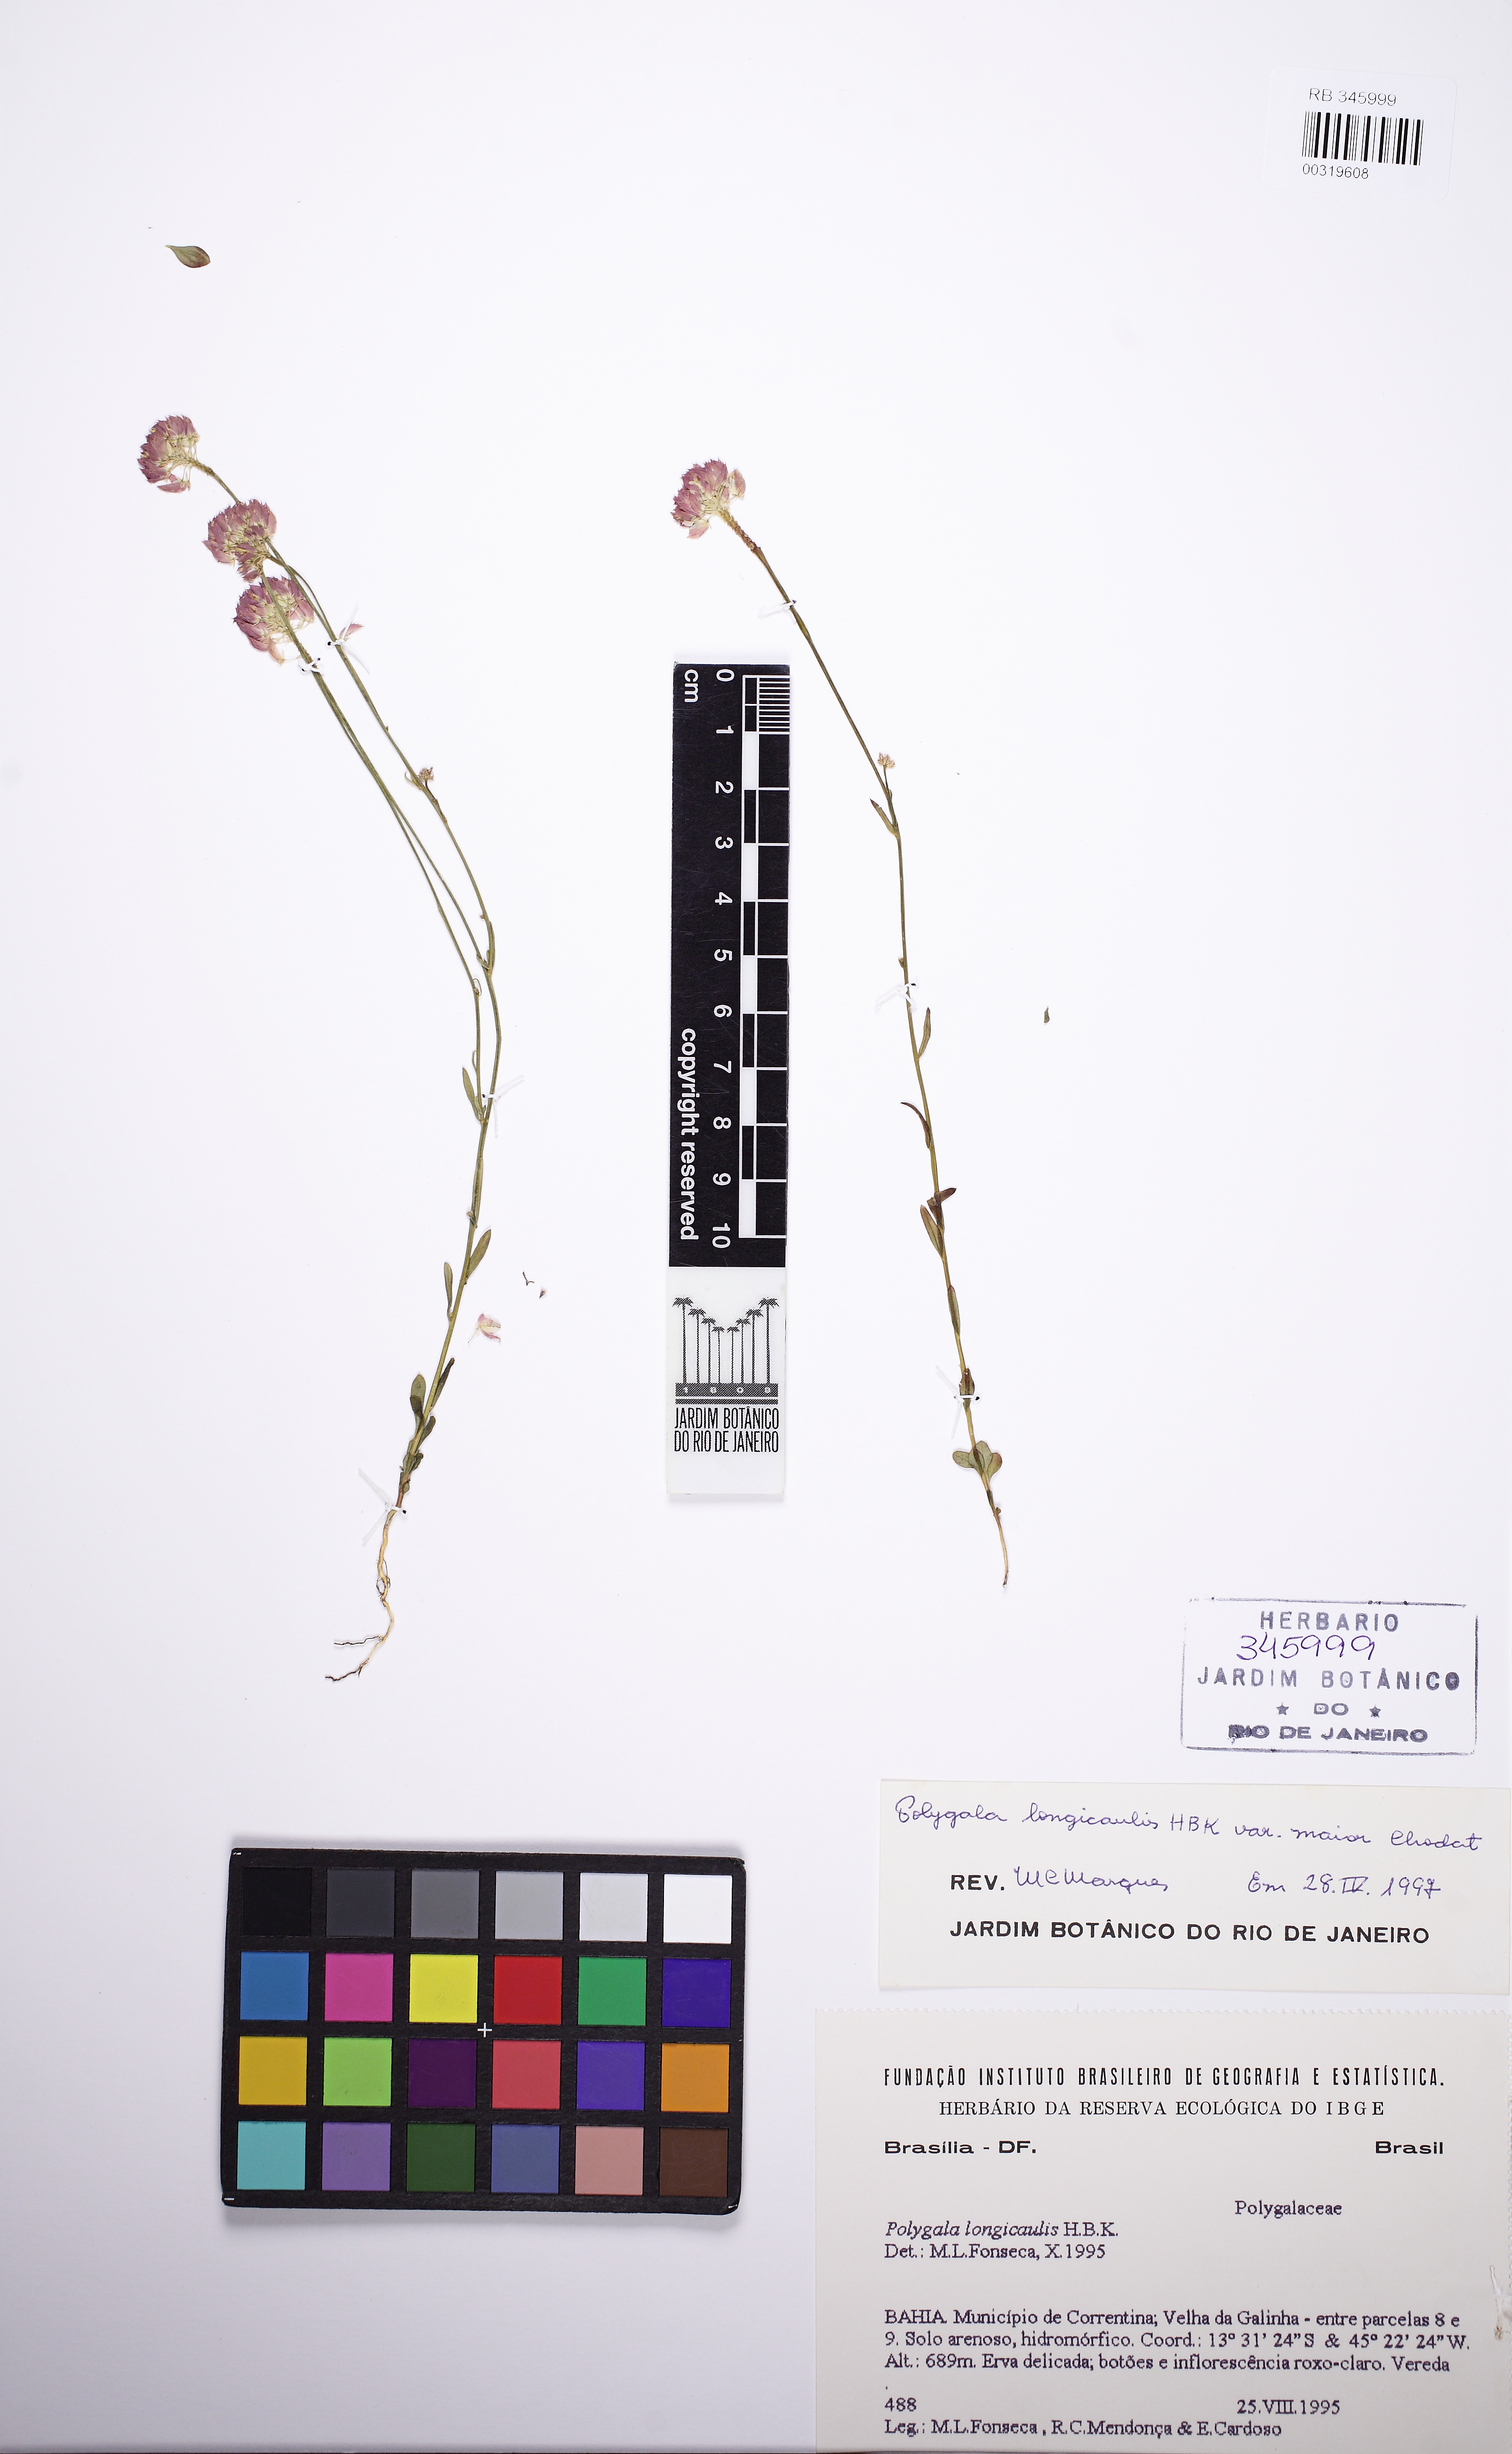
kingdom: Plantae
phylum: Tracheophyta
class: Magnoliopsida
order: Fabales
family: Polygalaceae
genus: Polygala
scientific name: Polygala longicaulis
